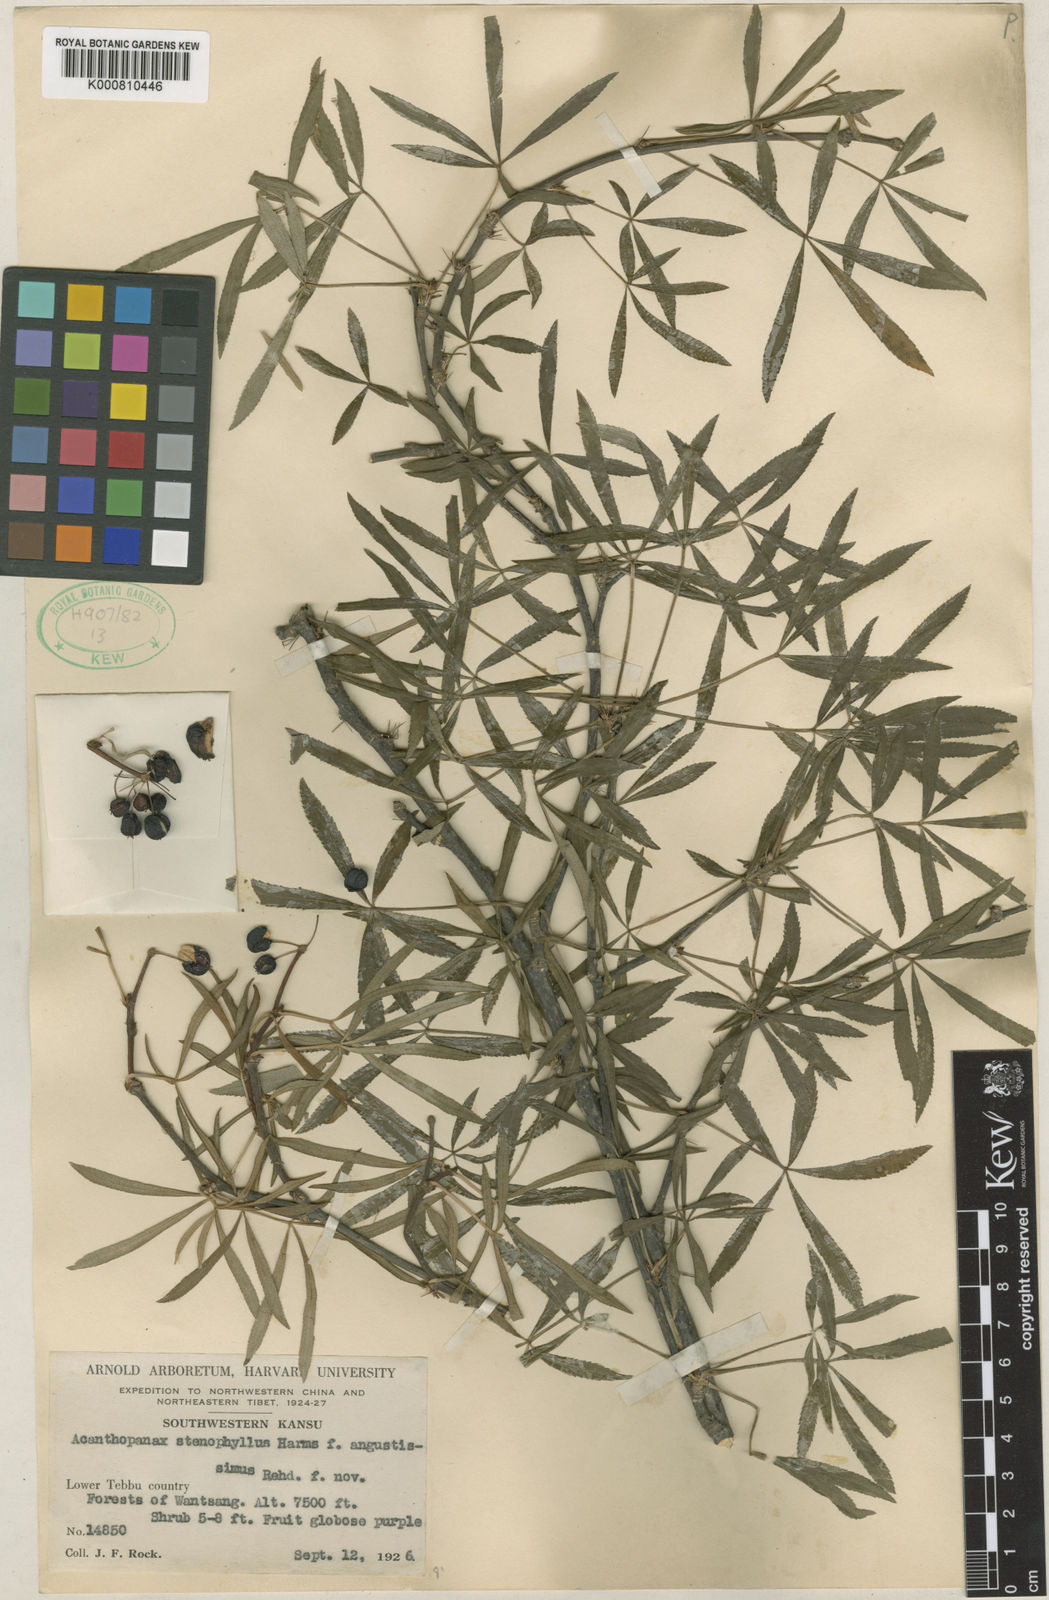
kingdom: Plantae
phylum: Tracheophyta
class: Magnoliopsida
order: Apiales
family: Araliaceae
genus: Eleutherococcus
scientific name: Eleutherococcus wilsonii
